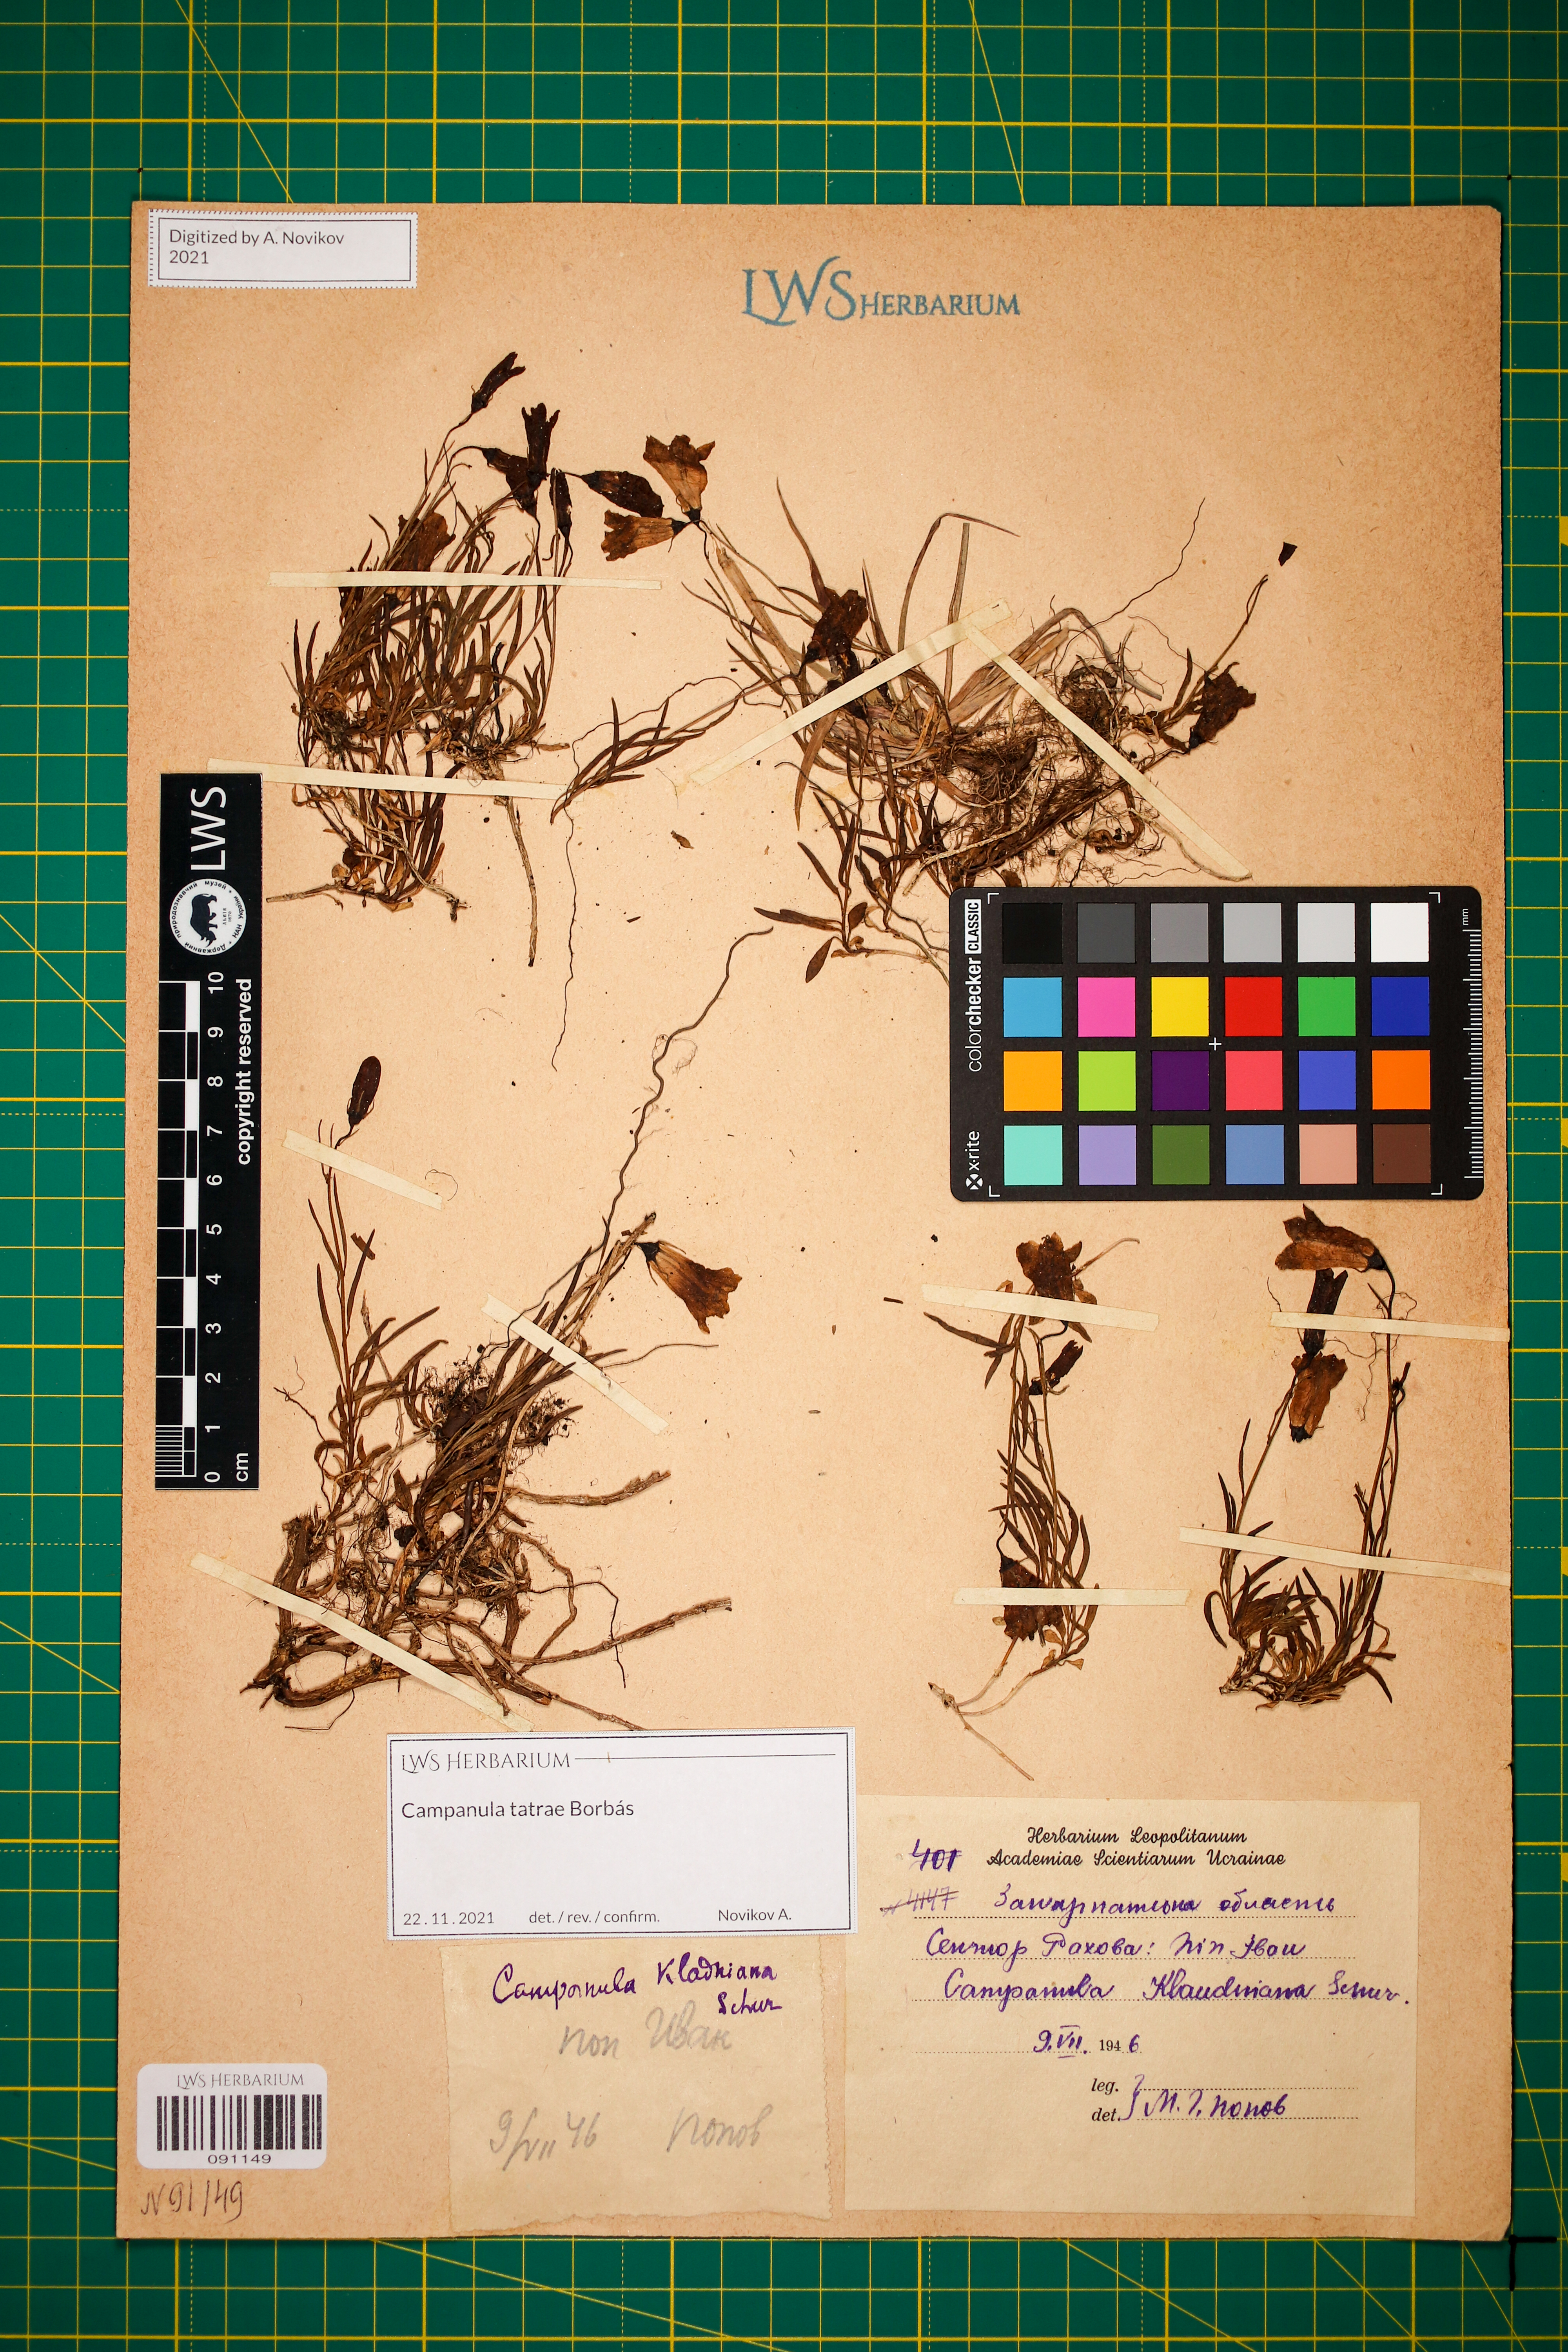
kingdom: Plantae
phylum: Tracheophyta
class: Magnoliopsida
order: Asterales
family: Campanulaceae
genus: Campanula
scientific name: Campanula kladniana
